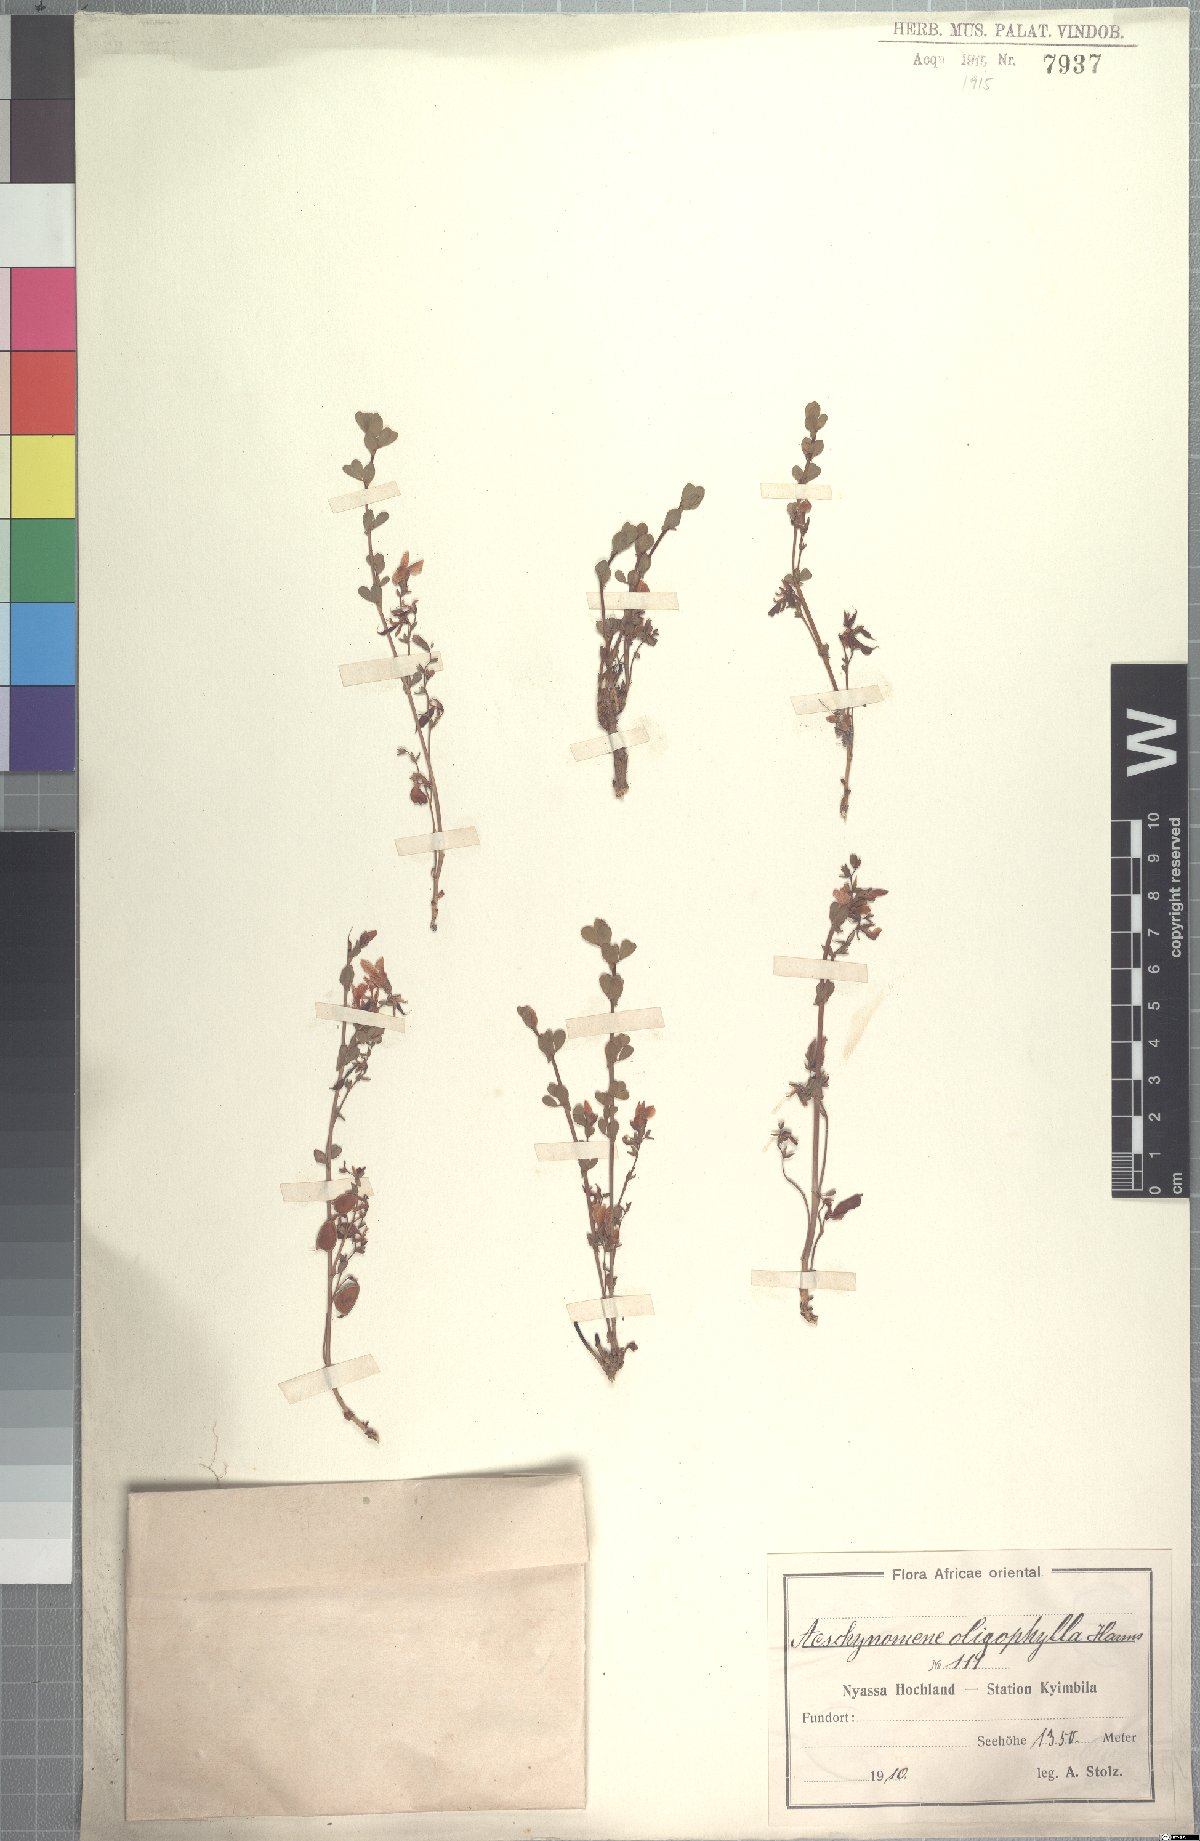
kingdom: Plantae
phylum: Tracheophyta
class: Magnoliopsida
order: Fabales
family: Fabaceae
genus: Aeschynomene
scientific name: Aeschynomene oligophylla
